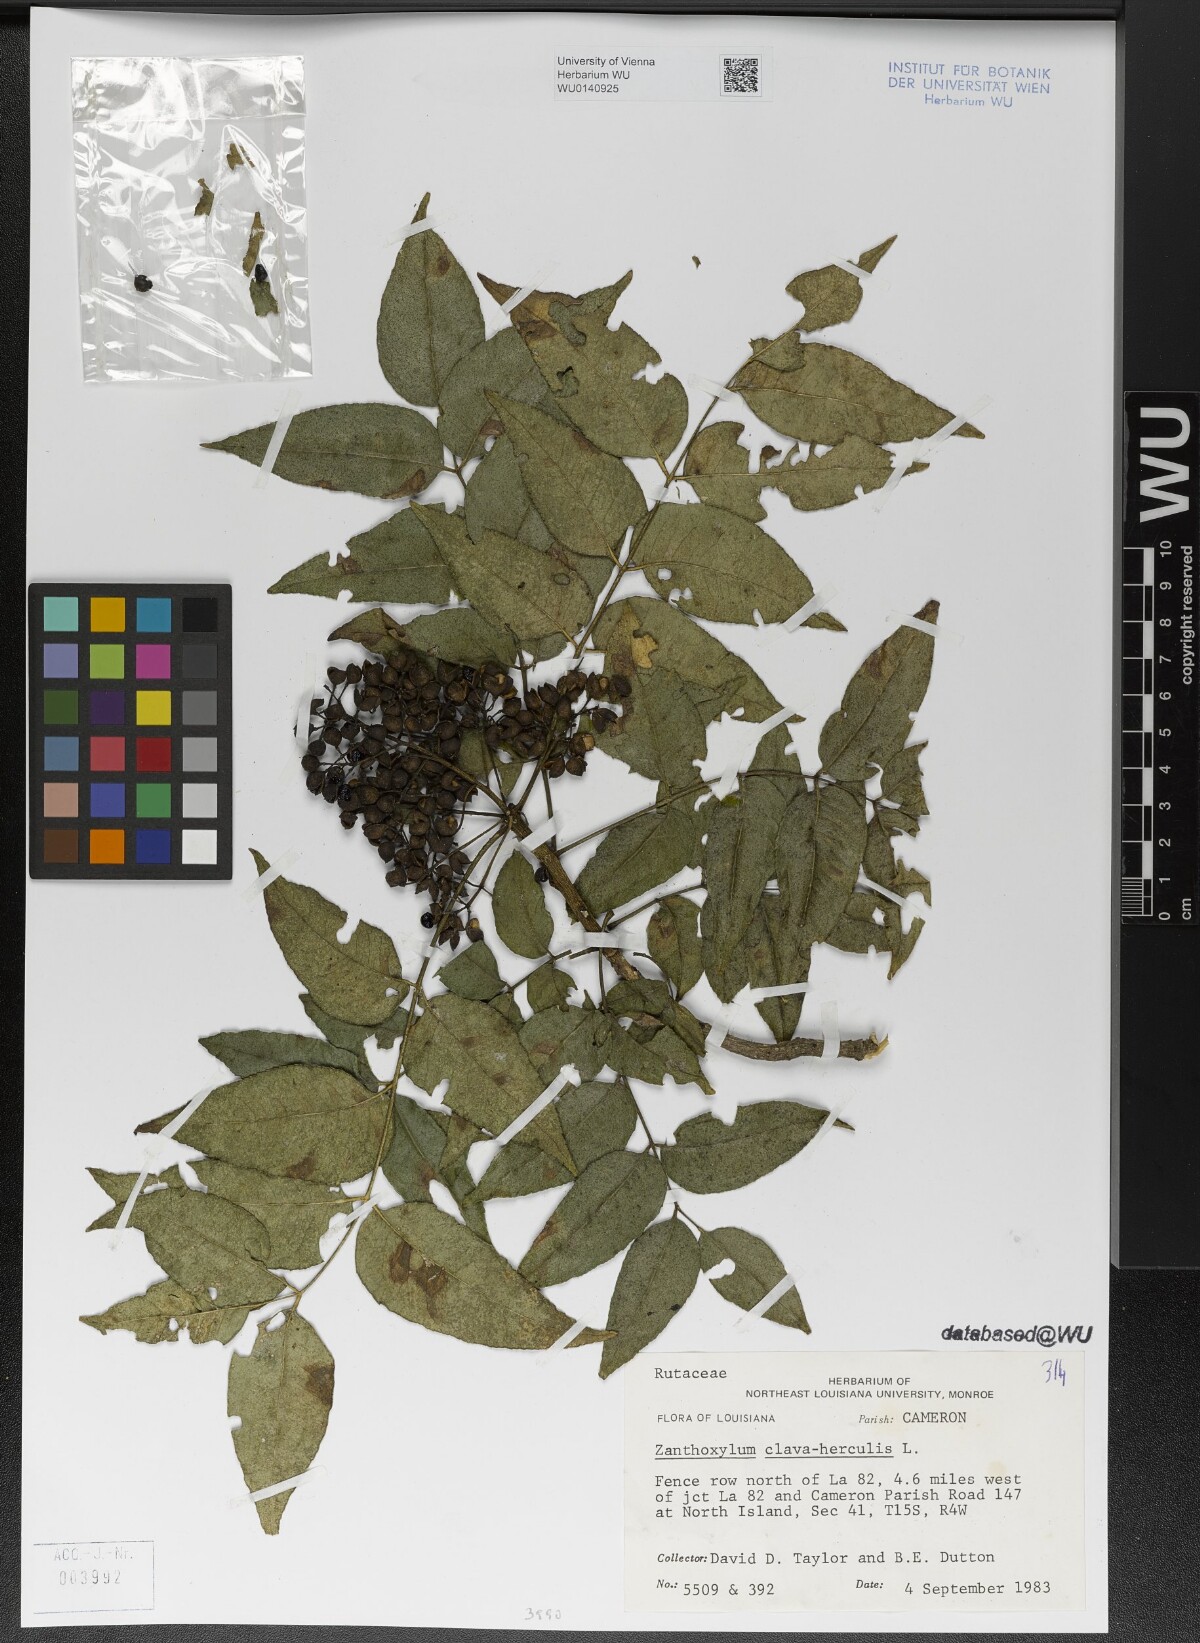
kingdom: Plantae
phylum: Tracheophyta
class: Magnoliopsida
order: Sapindales
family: Rutaceae
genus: Zanthoxylum
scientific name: Zanthoxylum clava-herculis
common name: Hercules'-club
